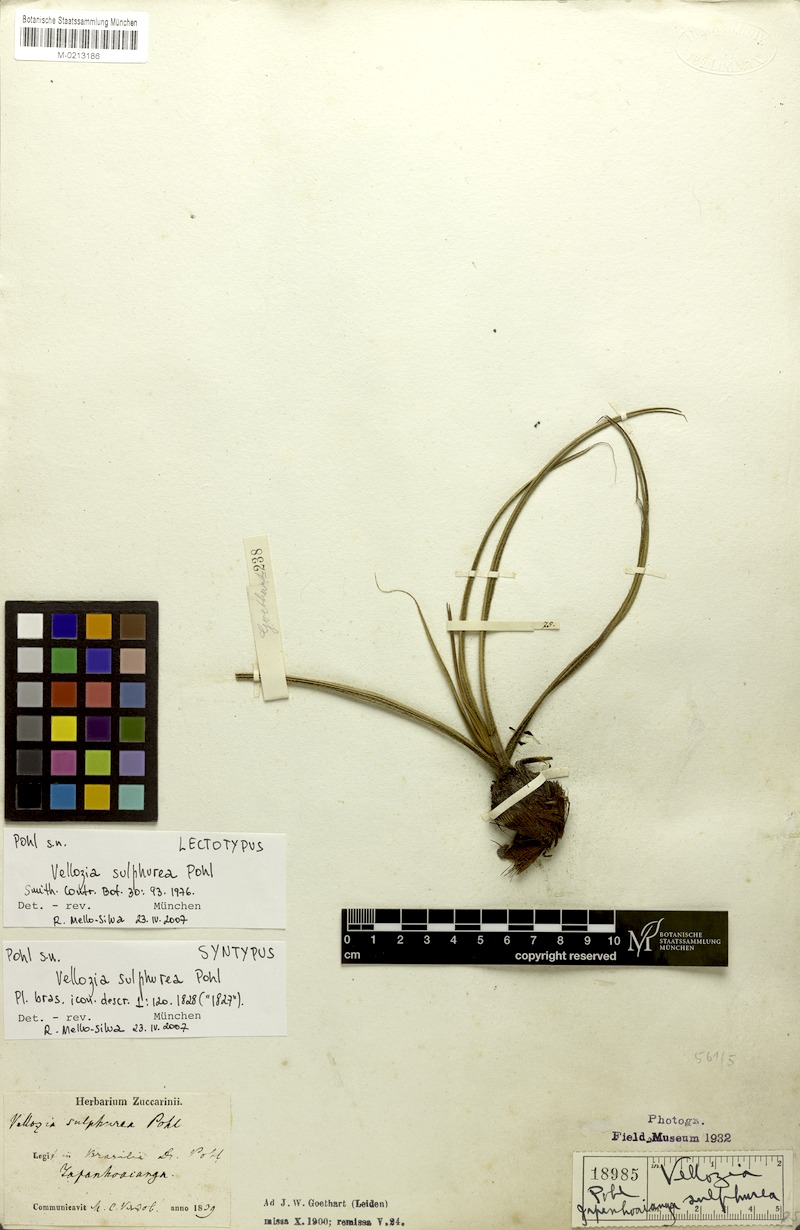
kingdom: Plantae
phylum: Tracheophyta
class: Liliopsida
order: Pandanales
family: Velloziaceae
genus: Vellozia
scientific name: Vellozia sulphurea
